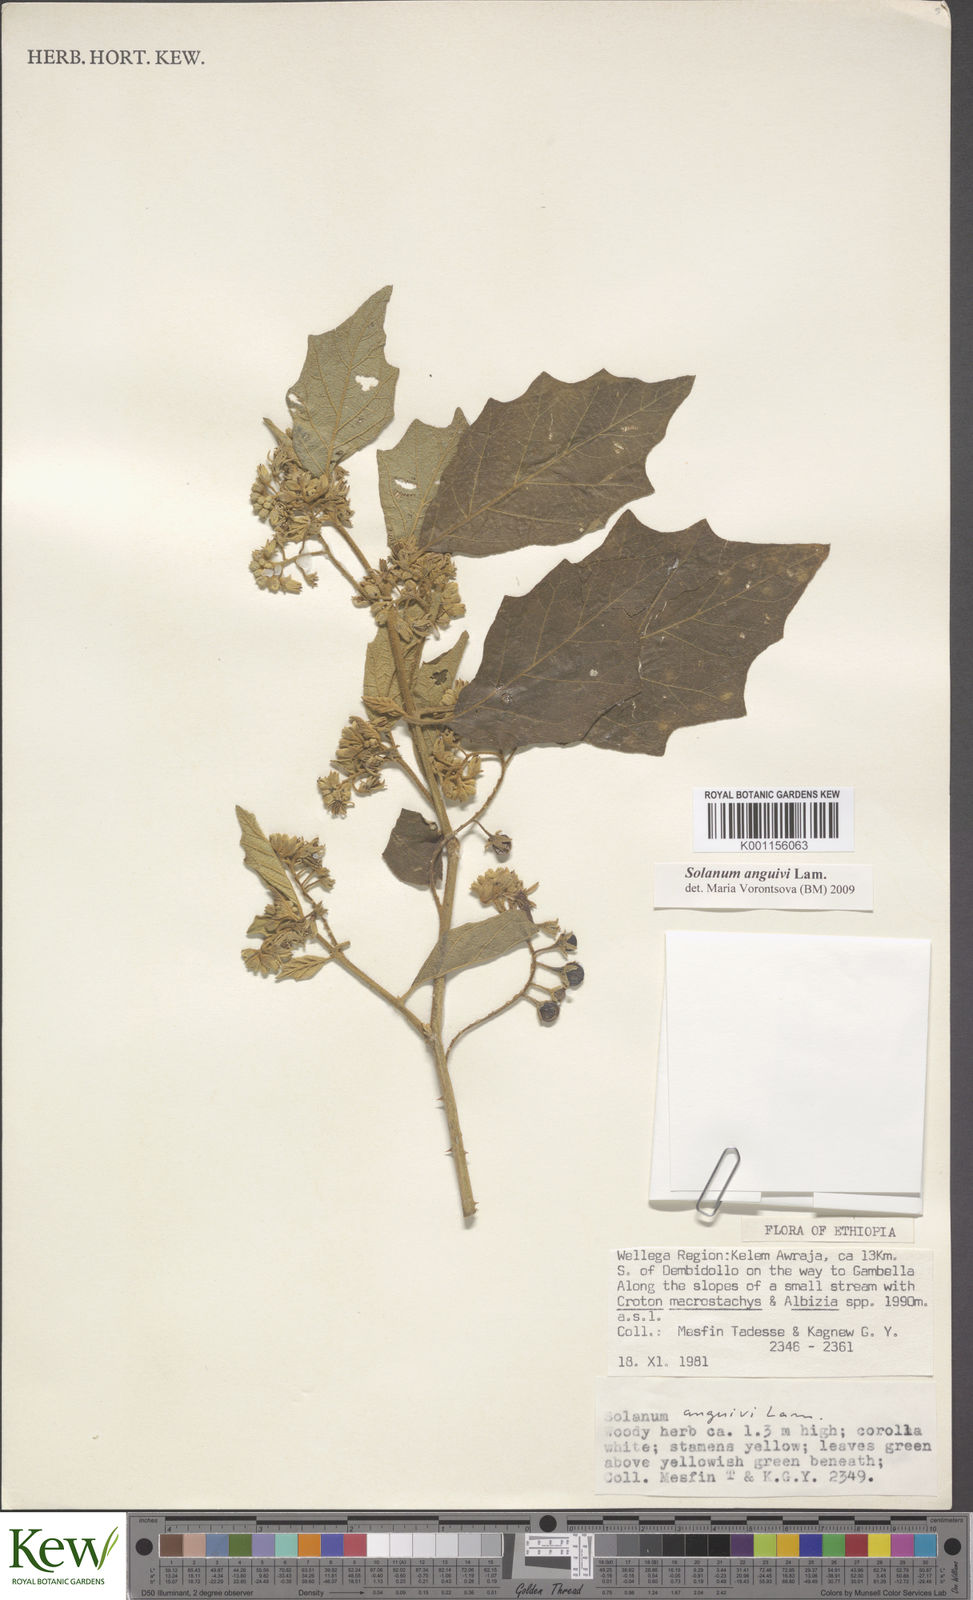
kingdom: Plantae
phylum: Tracheophyta
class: Magnoliopsida
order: Solanales
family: Solanaceae
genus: Solanum
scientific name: Solanum anguivi
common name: Forest bitterberry
